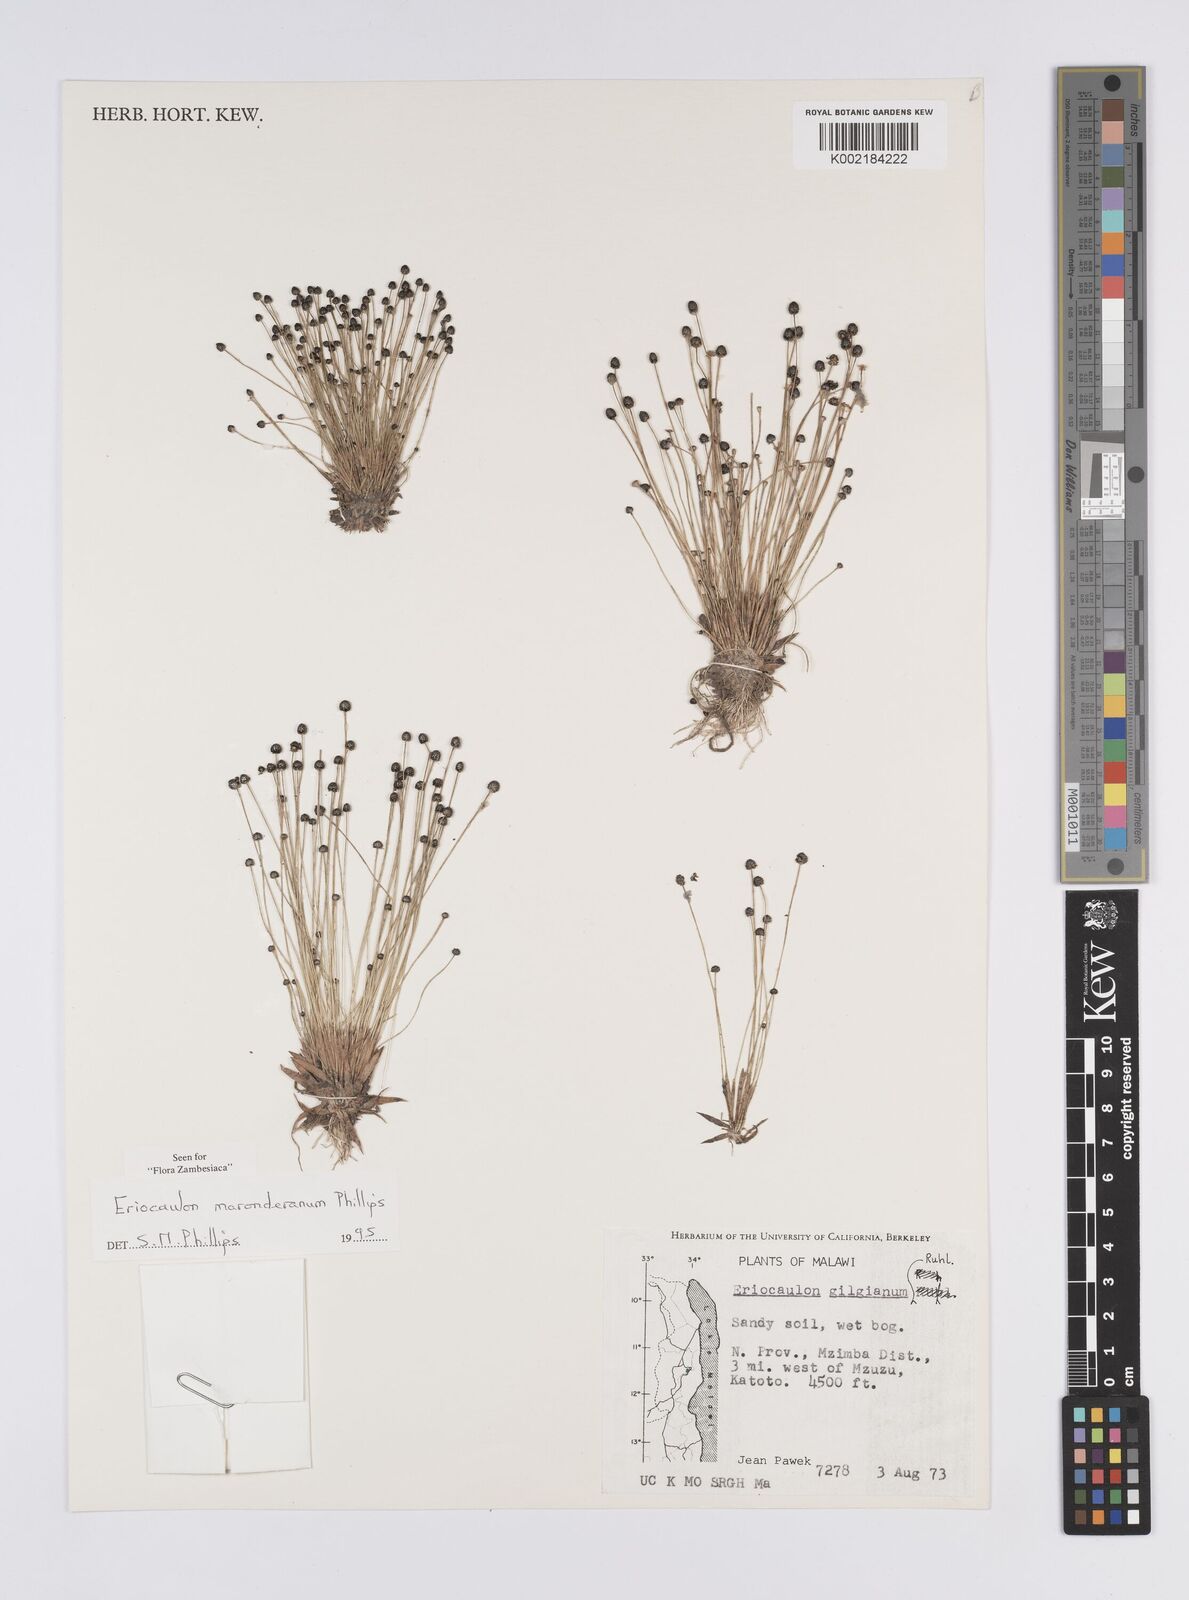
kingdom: Plantae
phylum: Tracheophyta
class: Liliopsida
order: Poales
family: Eriocaulaceae
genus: Eriocaulon
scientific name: Eriocaulon maronderanum
